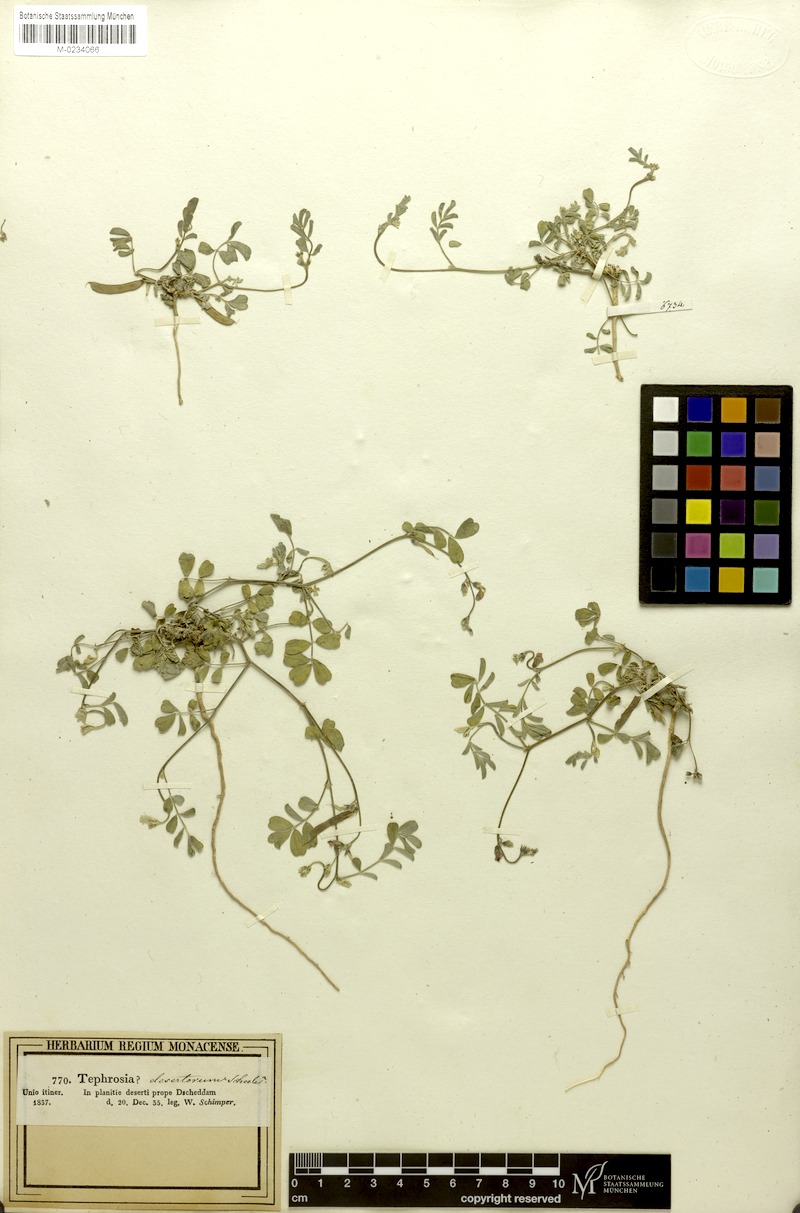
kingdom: Plantae
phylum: Tracheophyta
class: Magnoliopsida
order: Fabales
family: Fabaceae
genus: Tephrosia
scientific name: Tephrosia purpurea
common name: Fishpoison
